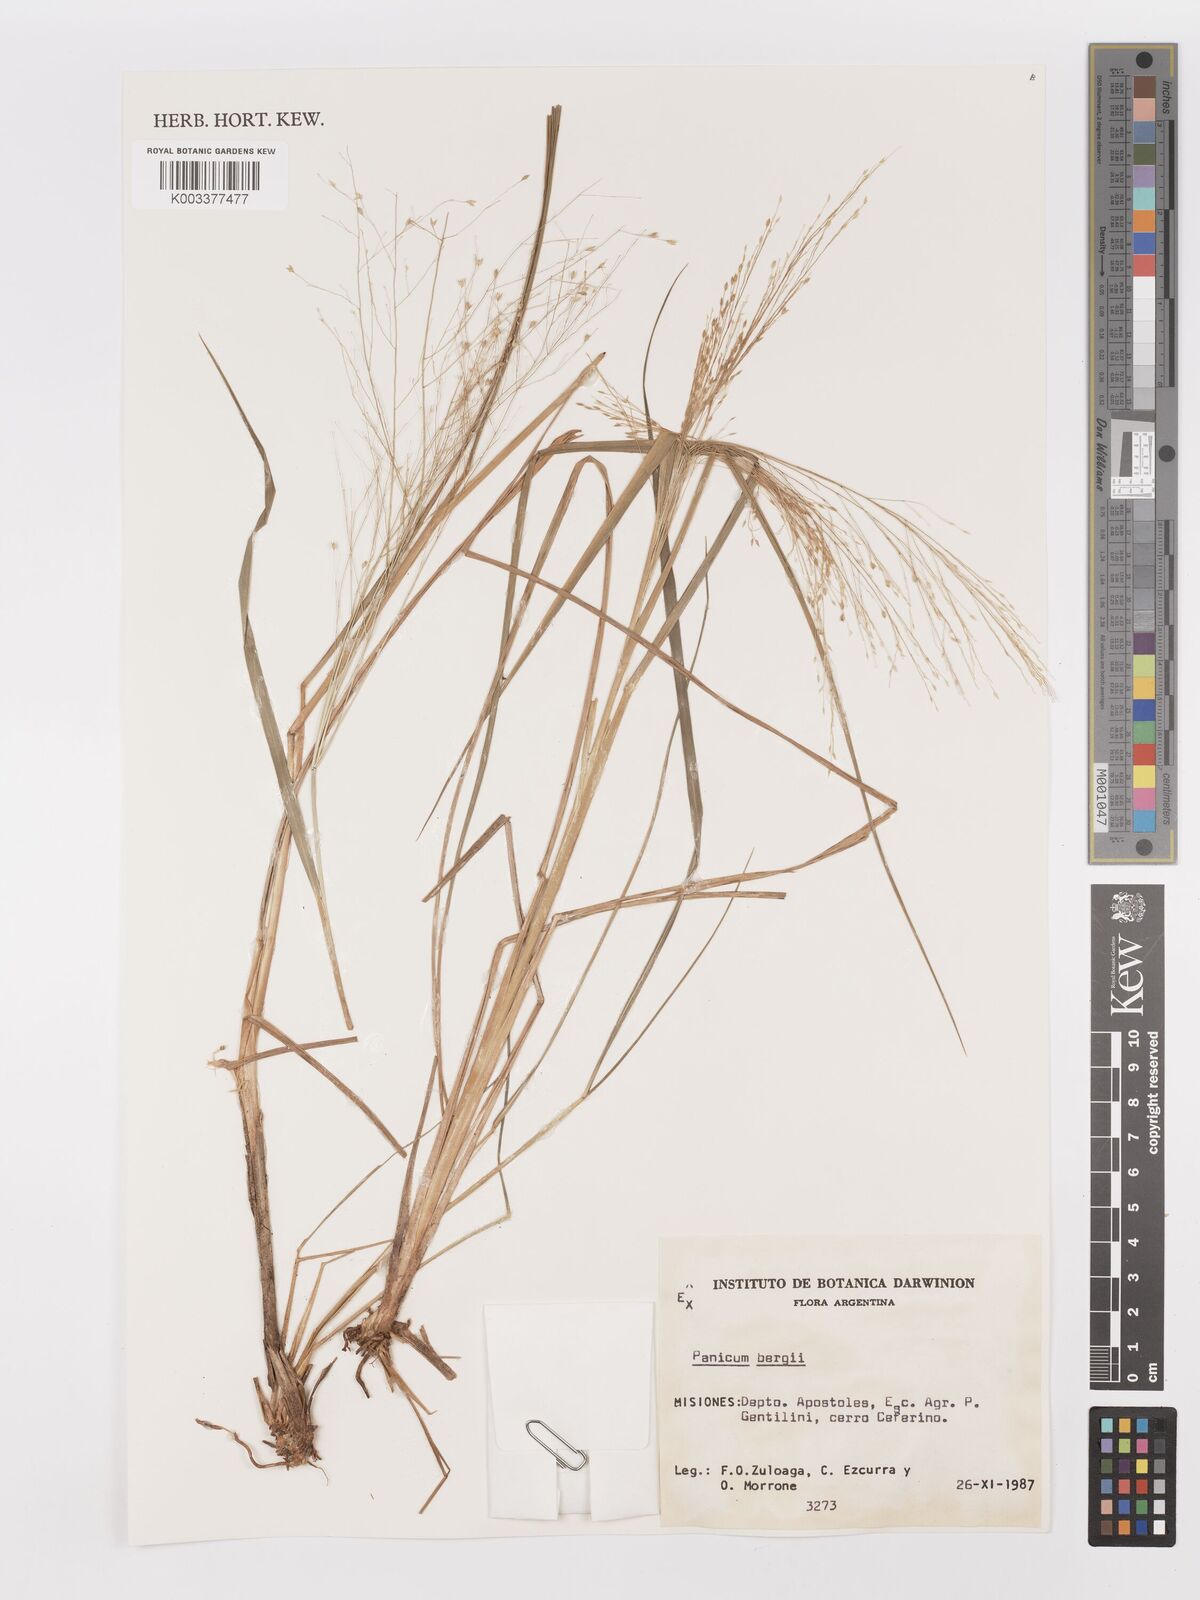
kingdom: Plantae
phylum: Tracheophyta
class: Liliopsida
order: Poales
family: Poaceae
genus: Panicum
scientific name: Panicum bergii
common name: Berg's panicgrass
